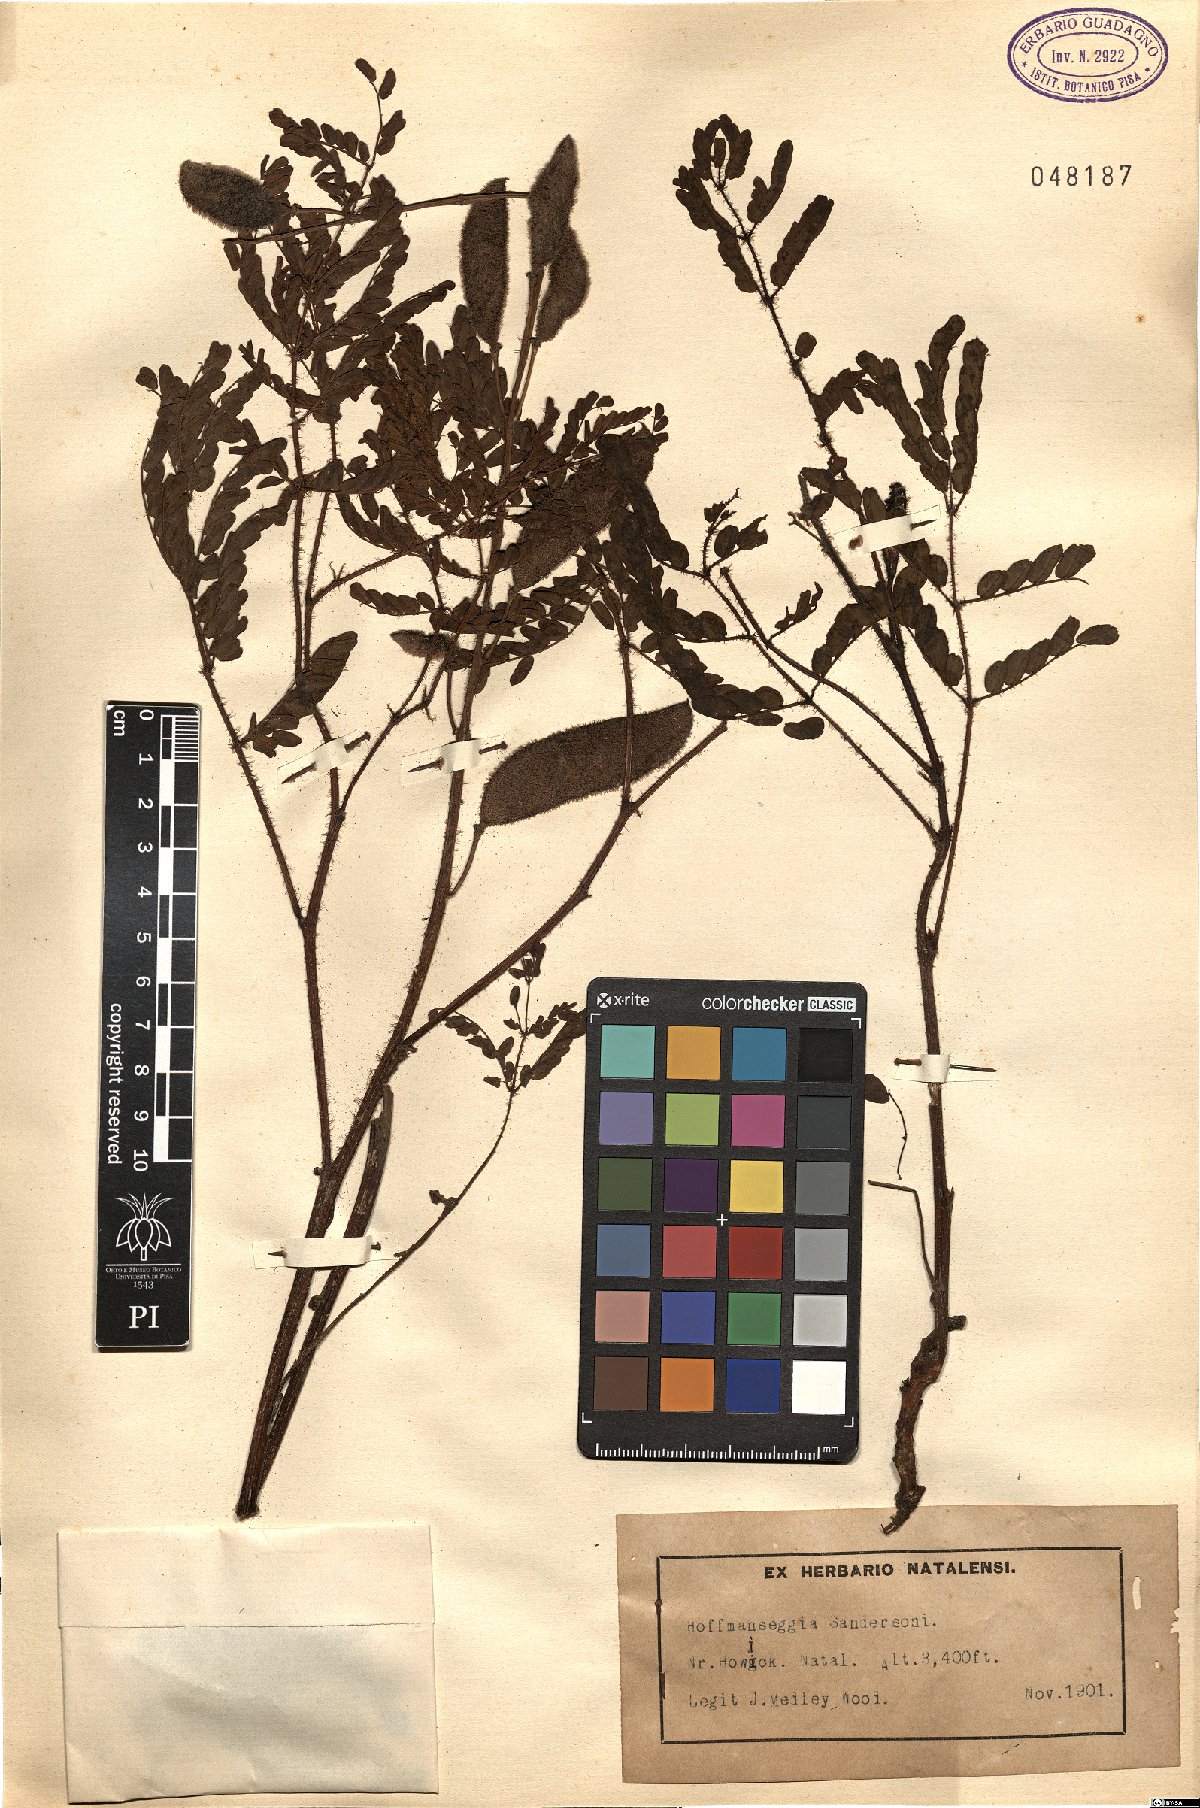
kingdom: Plantae
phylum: Tracheophyta
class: Magnoliopsida
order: Fabales
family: Fabaceae
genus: Pomaria
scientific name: Pomaria sandersonii
